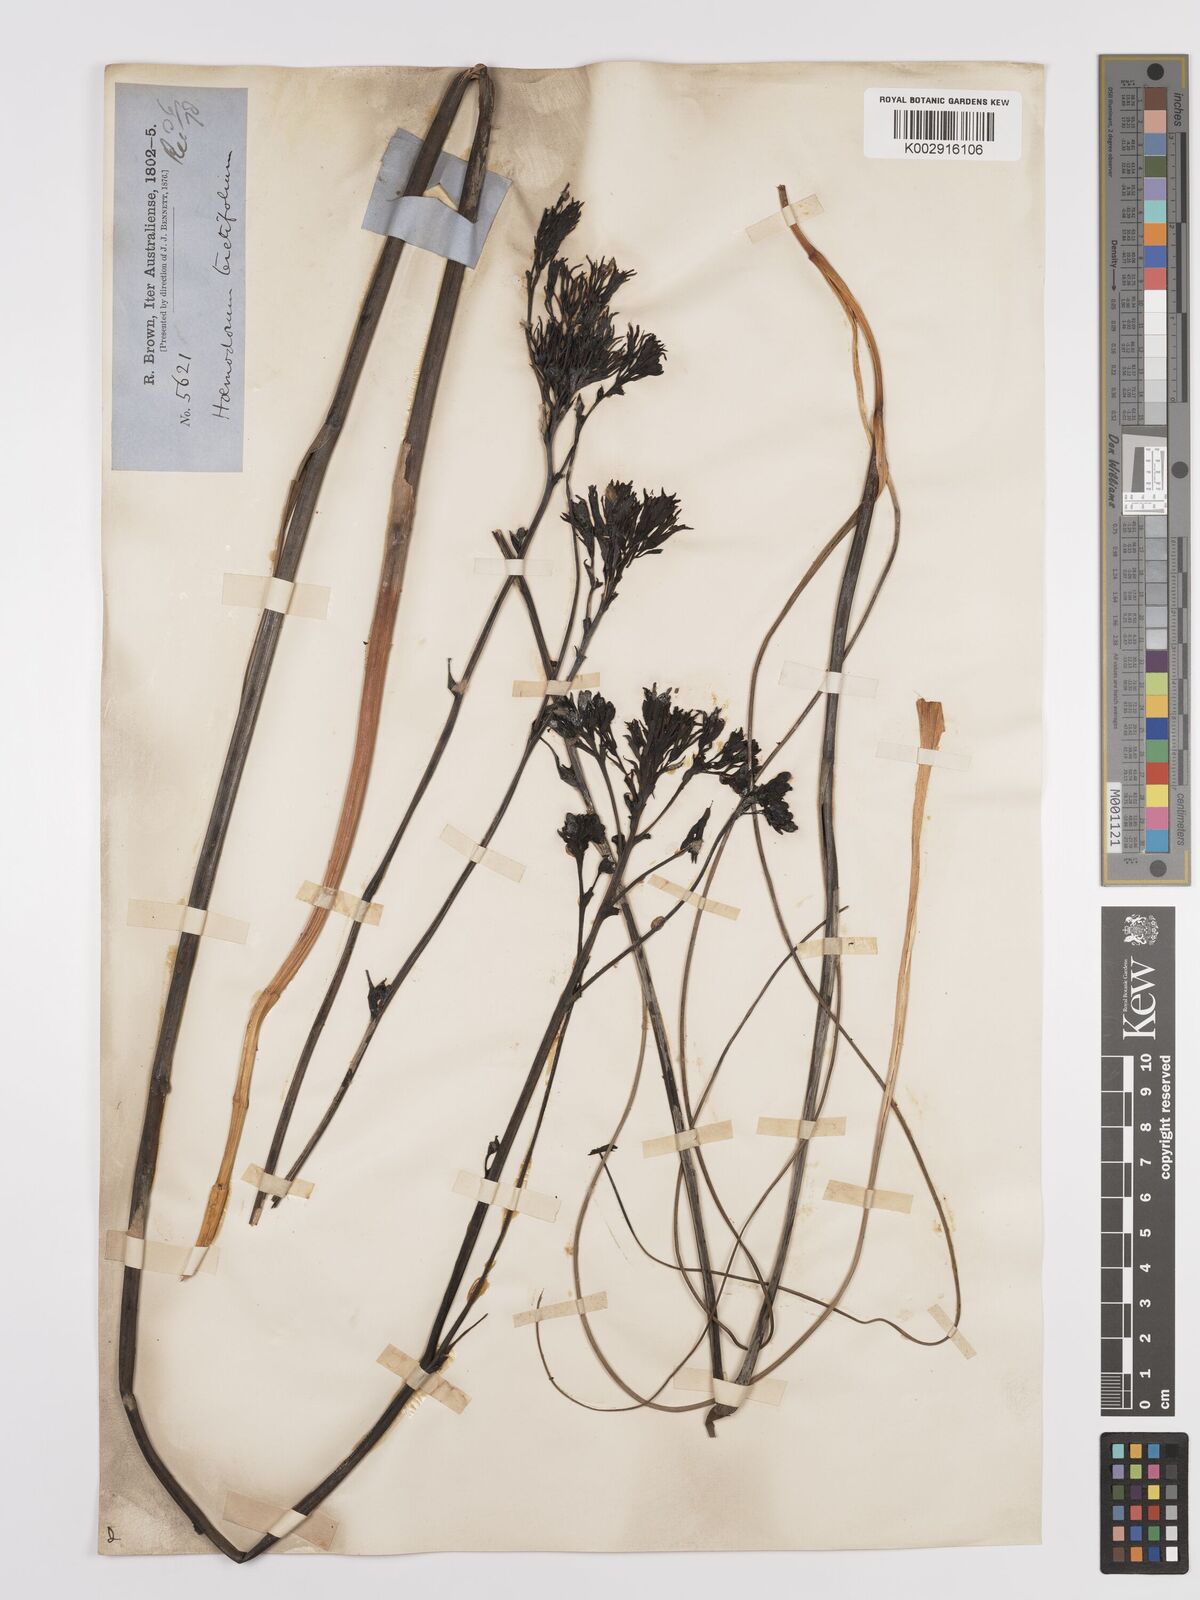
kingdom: Plantae
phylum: Tracheophyta
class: Liliopsida
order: Commelinales
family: Haemodoraceae
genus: Haemodorum
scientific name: Haemodorum corymbosum
